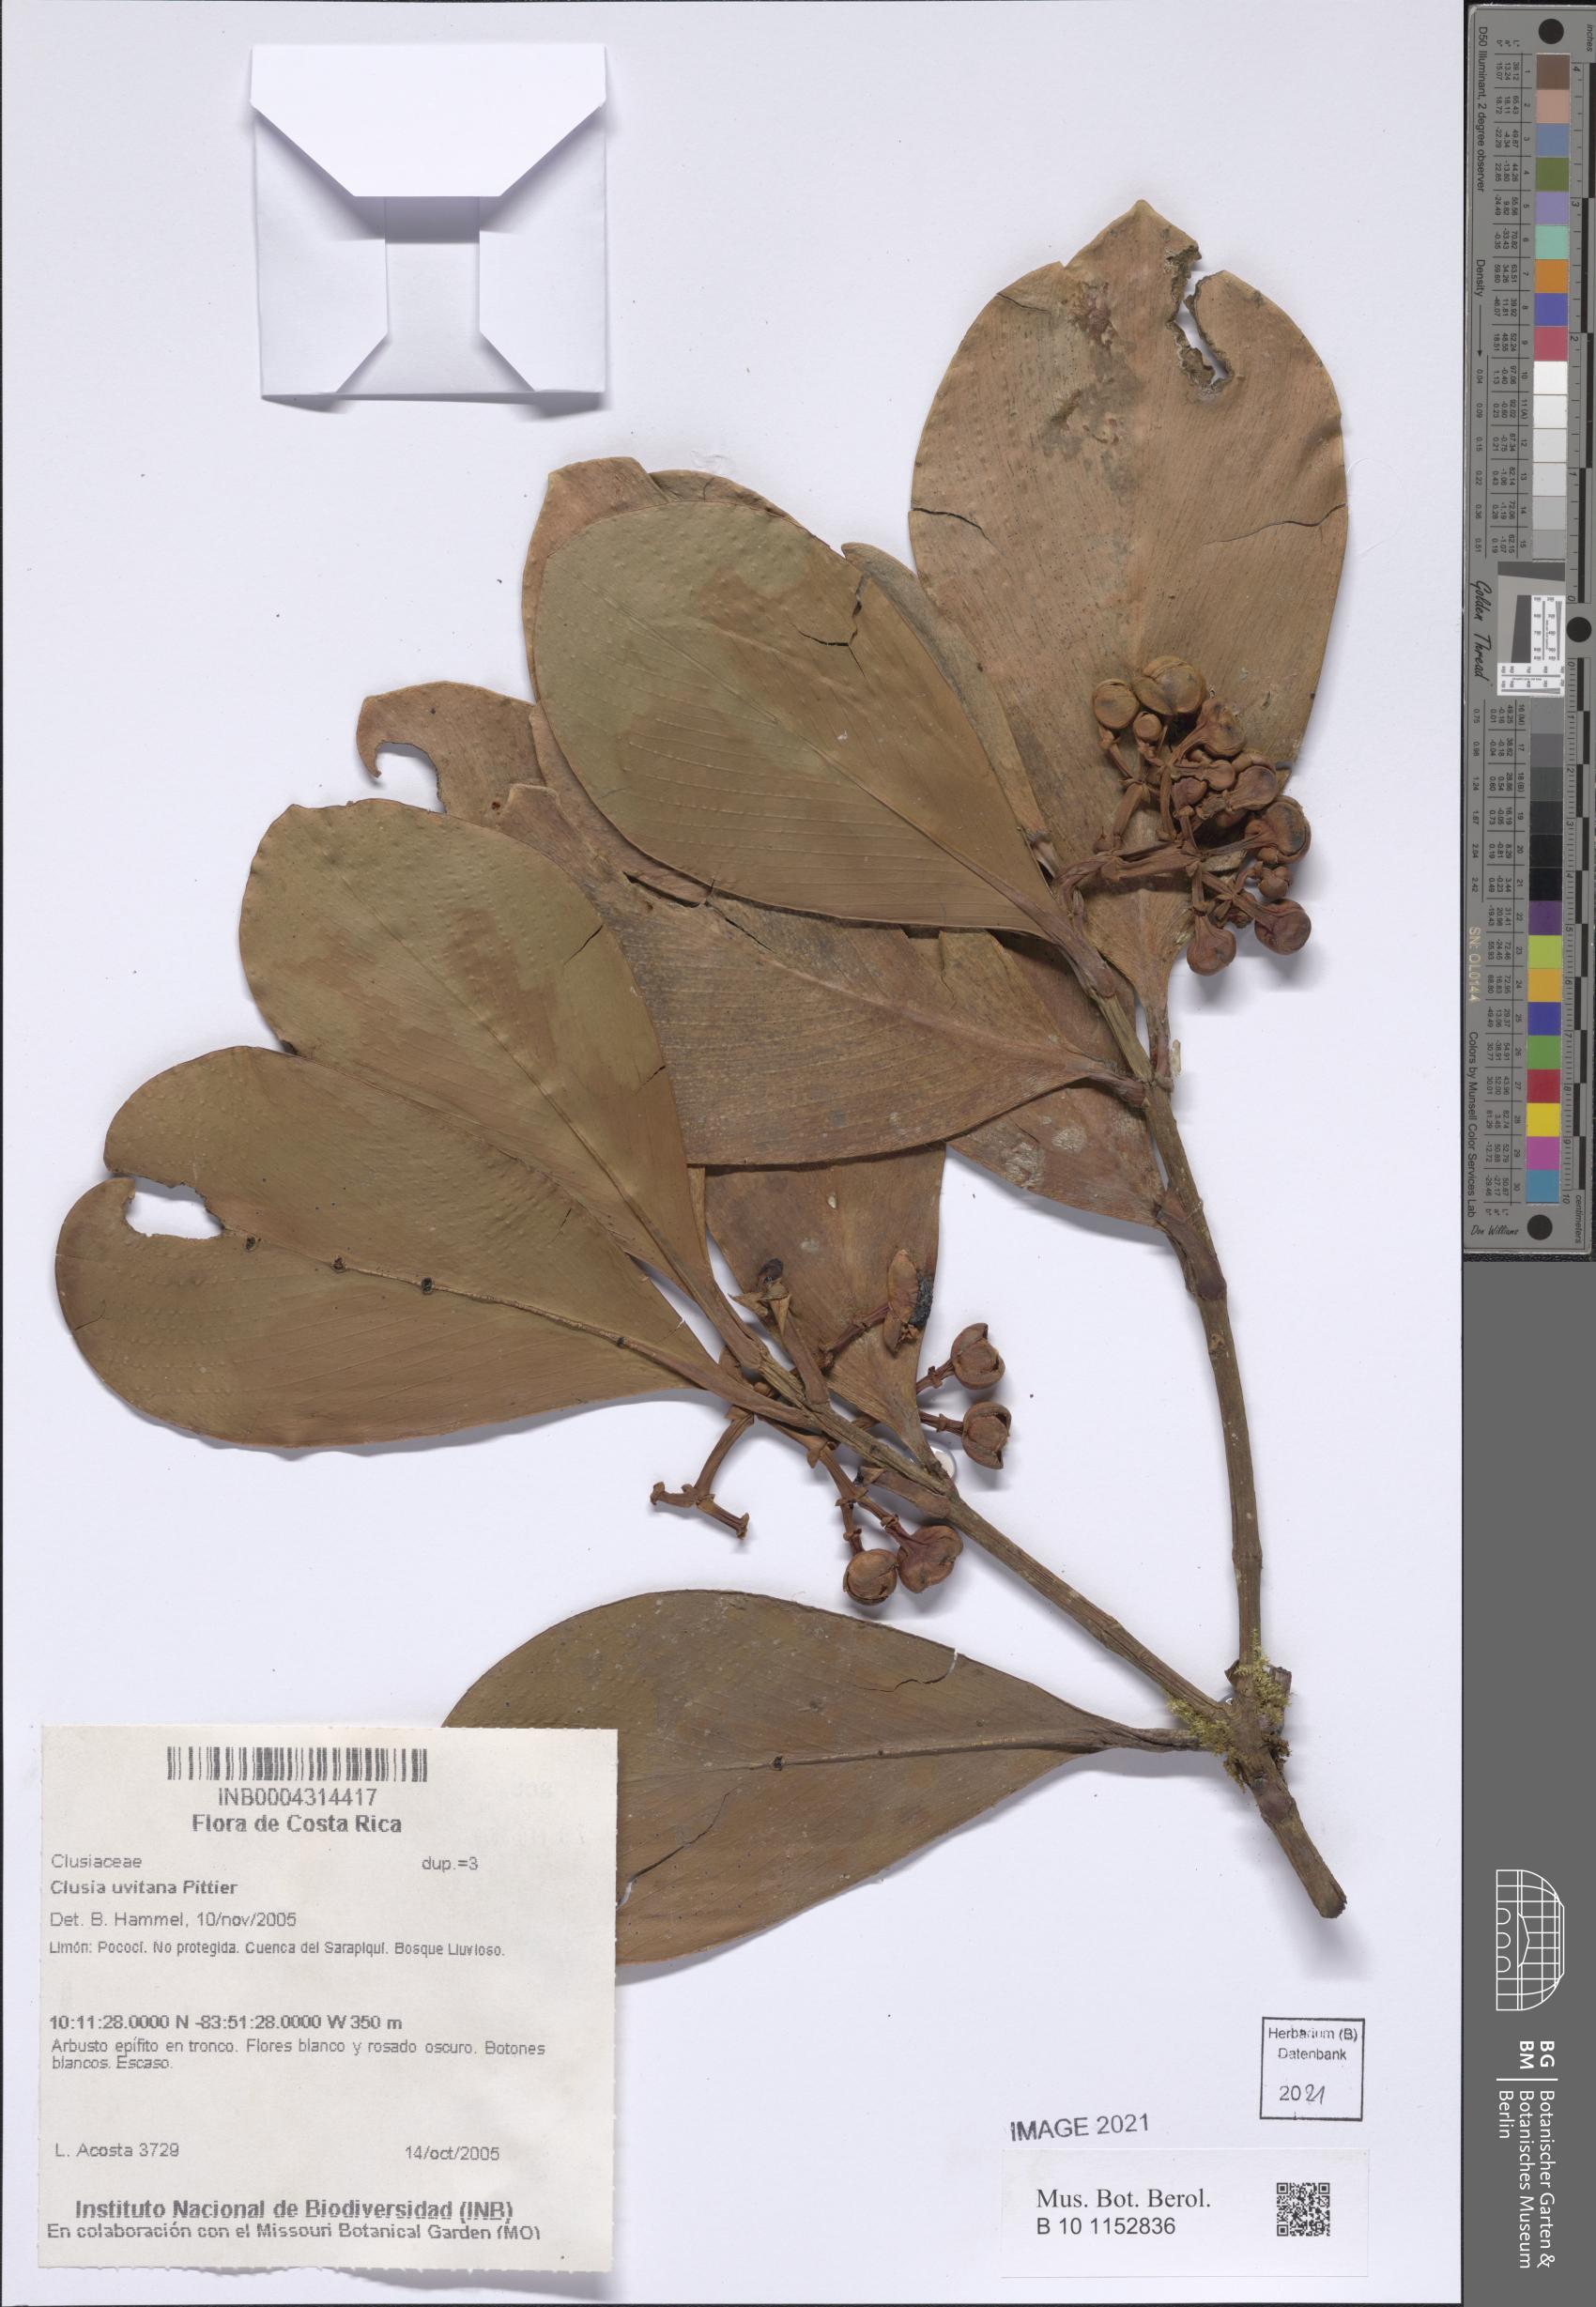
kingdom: Plantae
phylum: Tracheophyta
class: Magnoliopsida
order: Malpighiales
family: Clusiaceae
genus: Clusia
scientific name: Clusia uvitana
